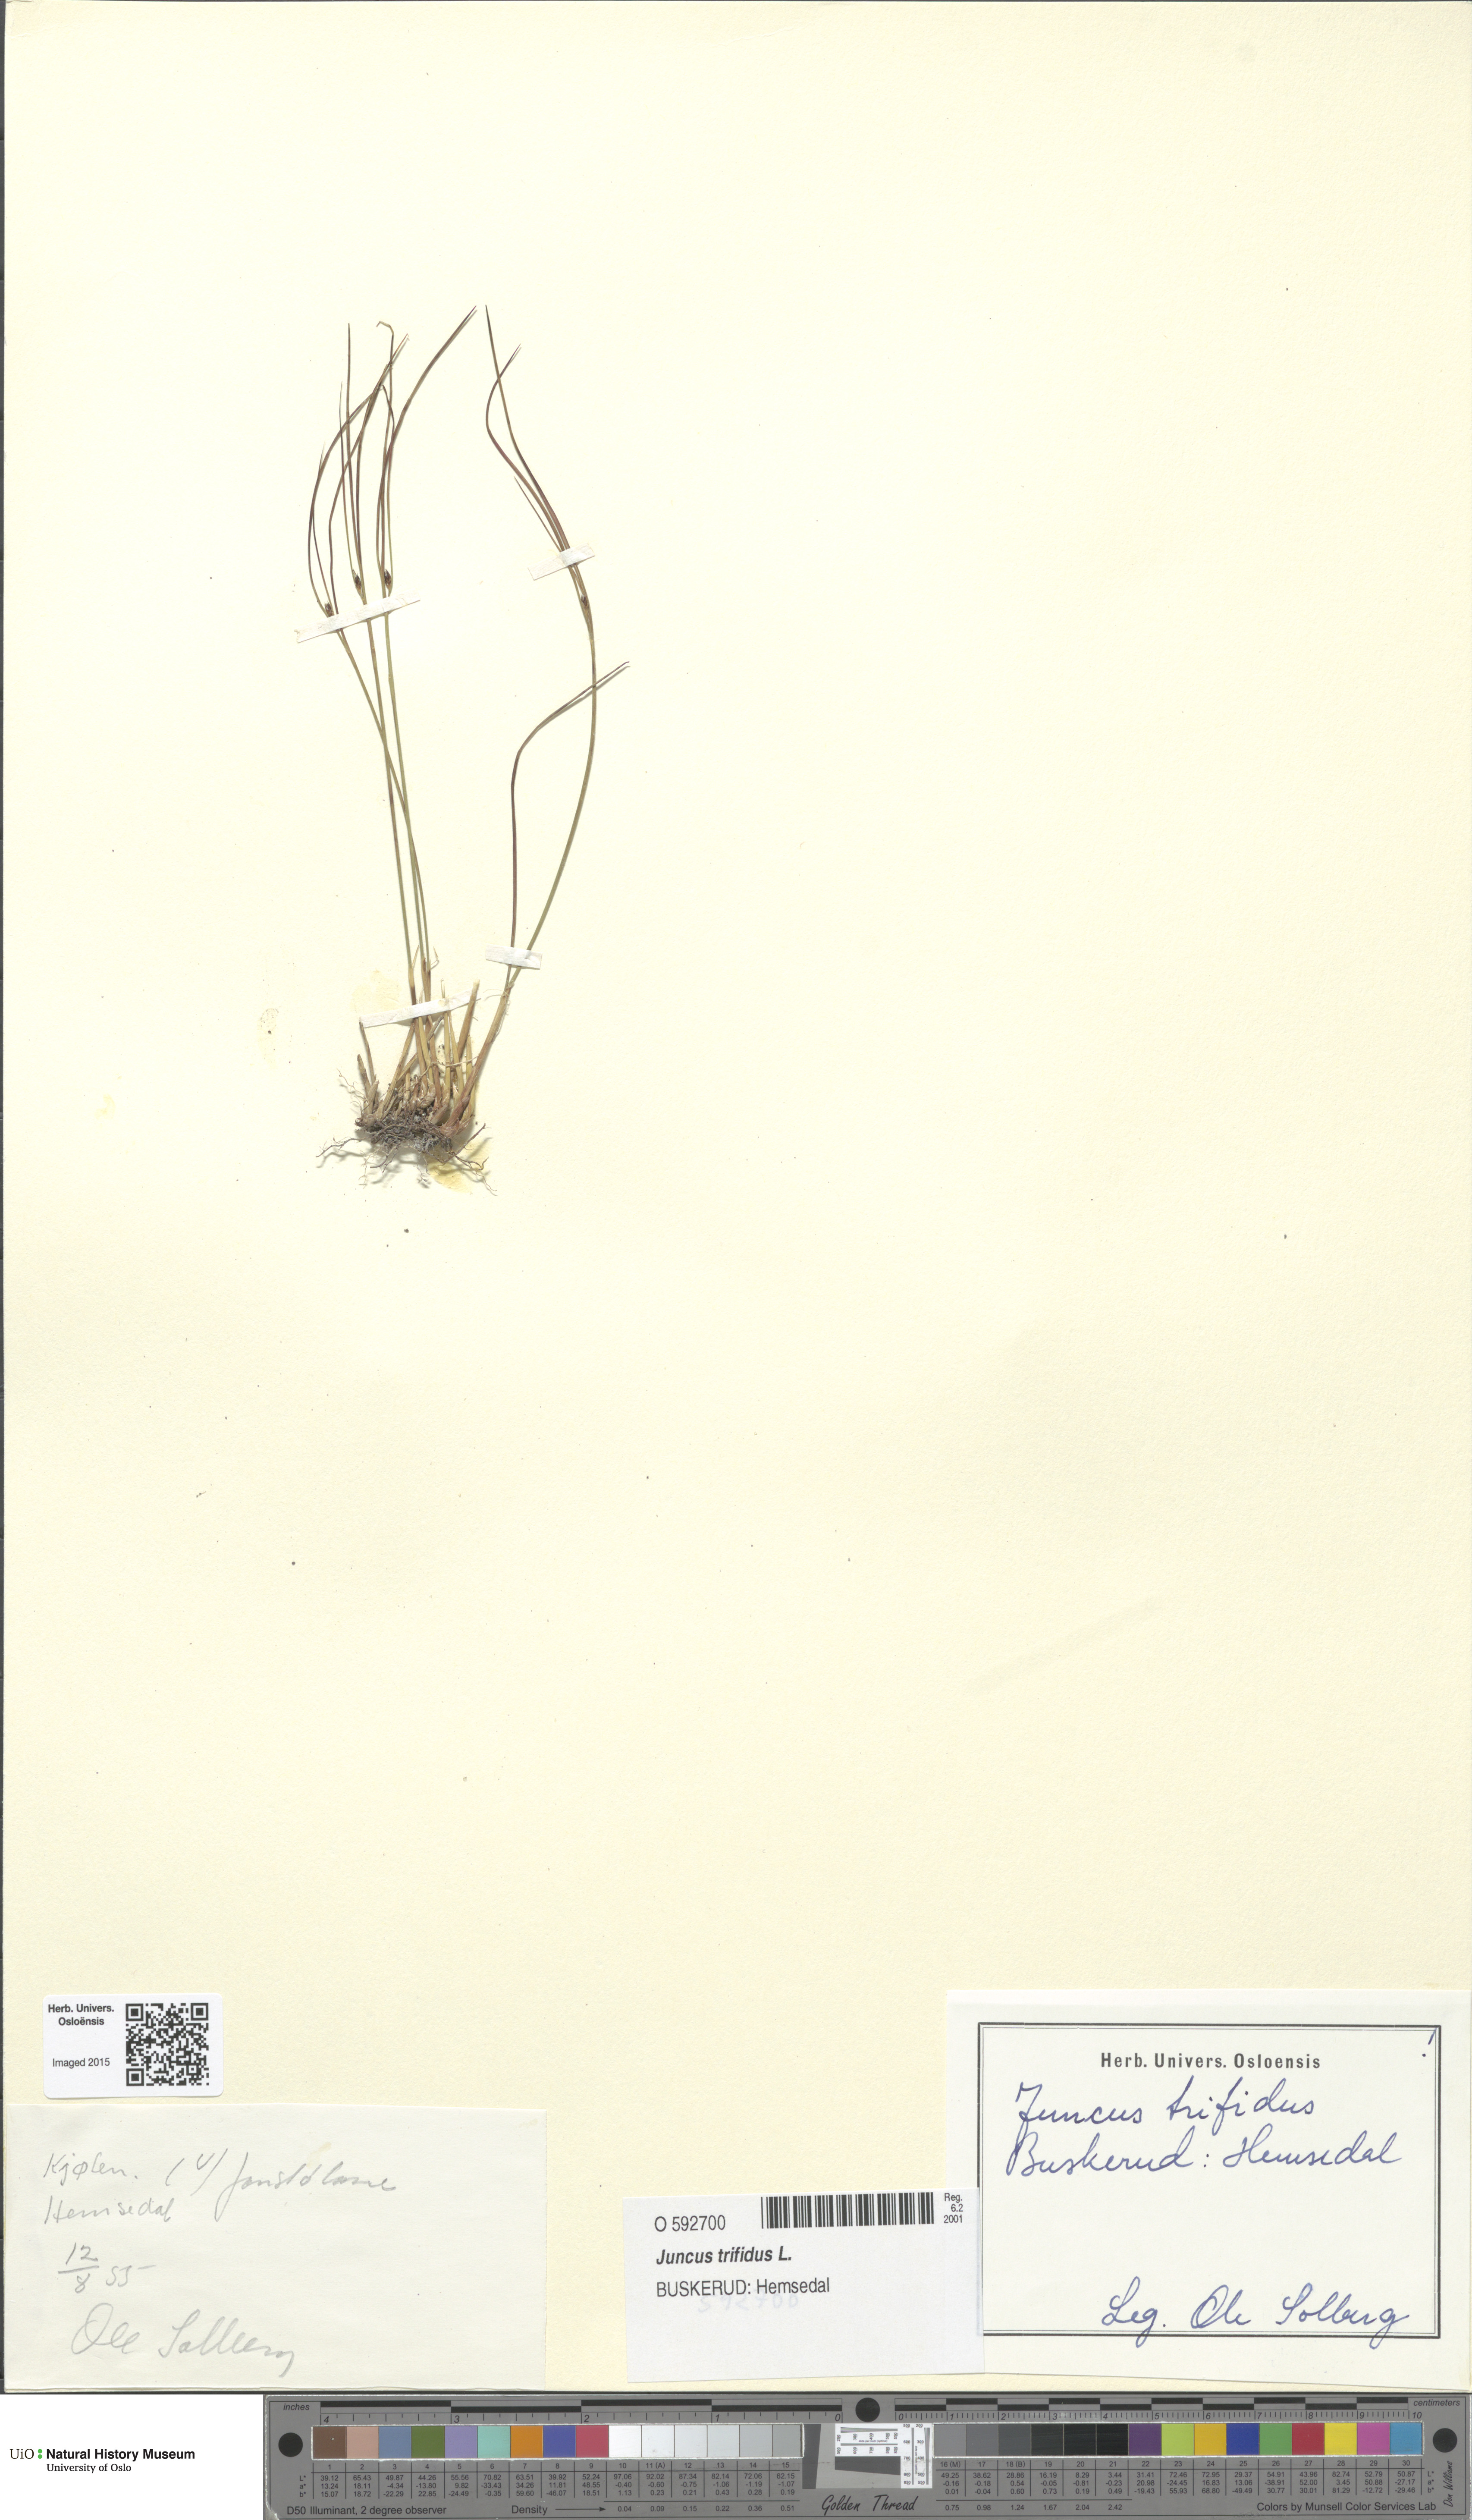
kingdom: Plantae
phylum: Tracheophyta
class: Liliopsida
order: Poales
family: Juncaceae
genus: Oreojuncus
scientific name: Oreojuncus trifidus
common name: Highland rush
